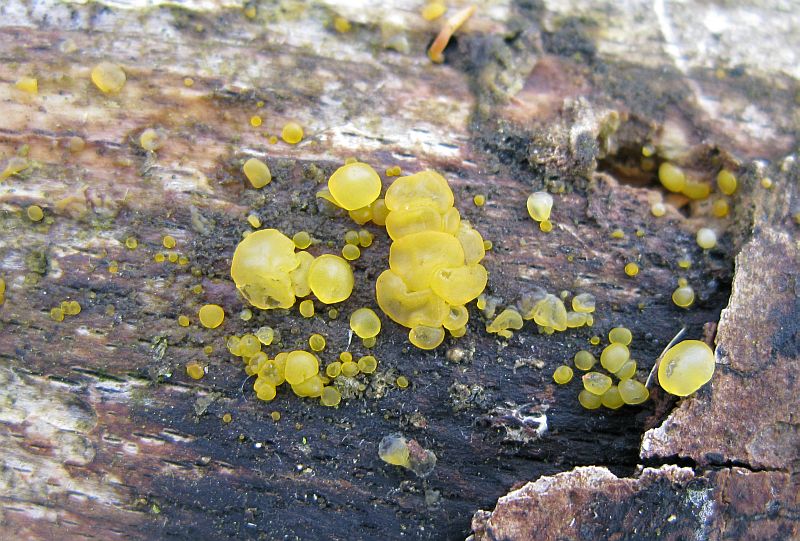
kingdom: Fungi
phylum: Basidiomycota
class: Dacrymycetes
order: Dacrymycetales
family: Dacrymycetaceae
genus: Dacrymyces
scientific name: Dacrymyces lacrymalis
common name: rynket tåresvamp
